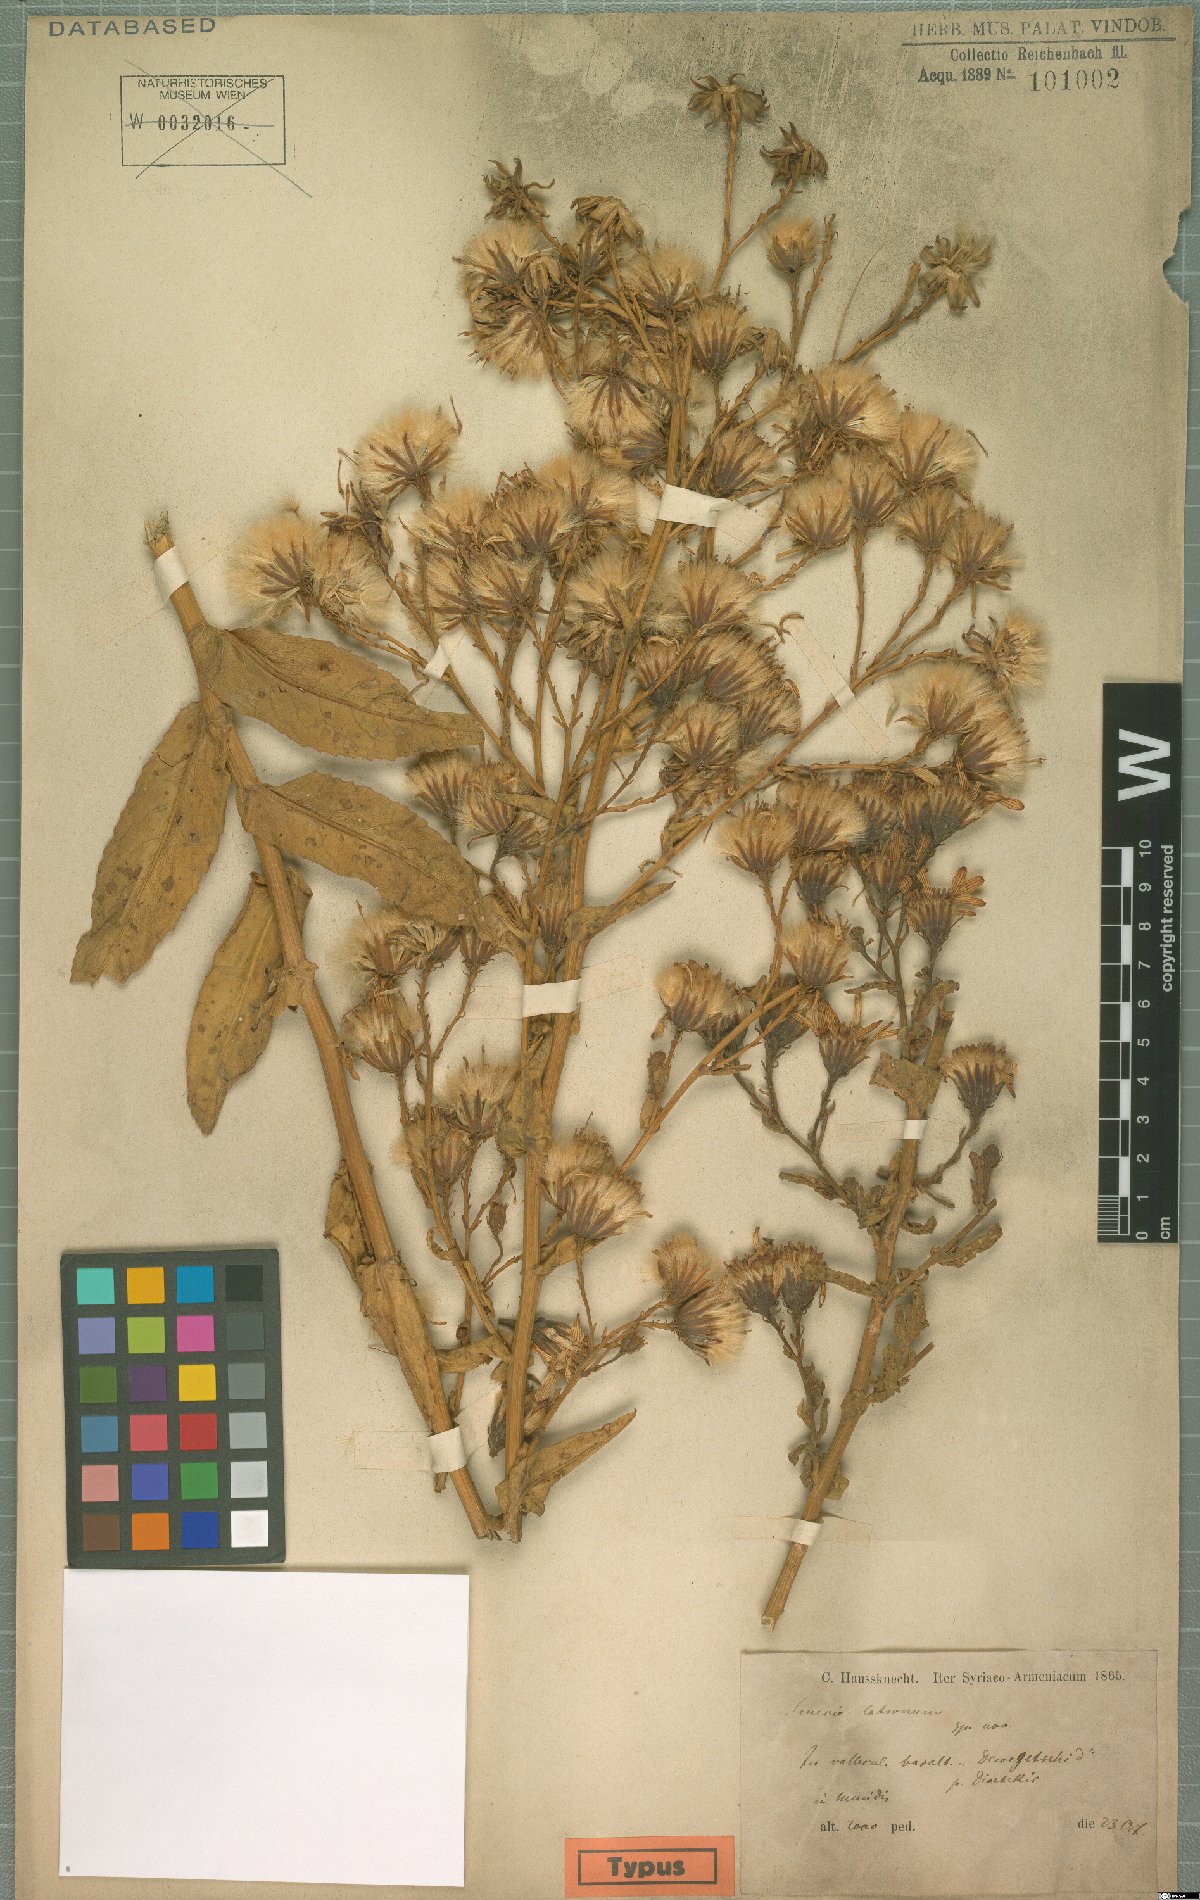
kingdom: Plantae
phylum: Tracheophyta
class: Magnoliopsida
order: Asterales
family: Asteraceae
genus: Jacobaea
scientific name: Jacobaea racemosa
